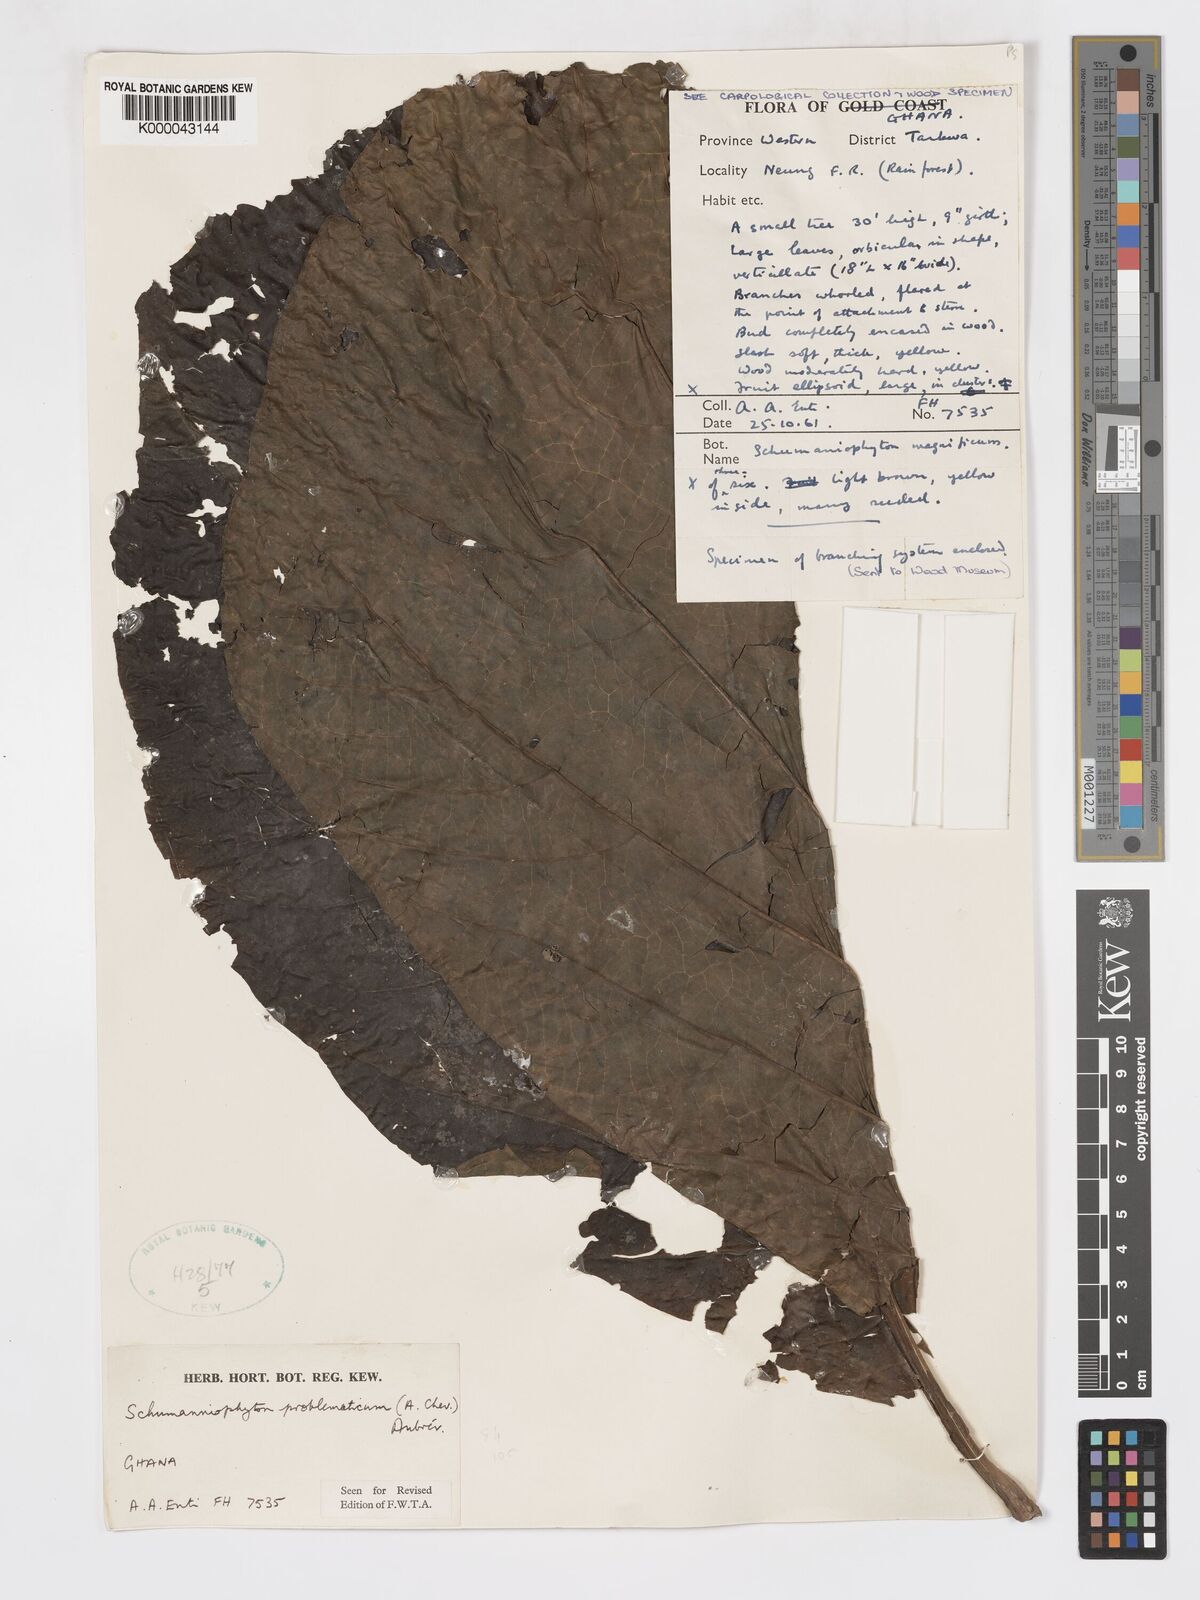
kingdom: Plantae
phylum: Tracheophyta
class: Magnoliopsida
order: Gentianales
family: Rubiaceae
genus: Schumanniophyton
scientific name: Schumanniophyton
